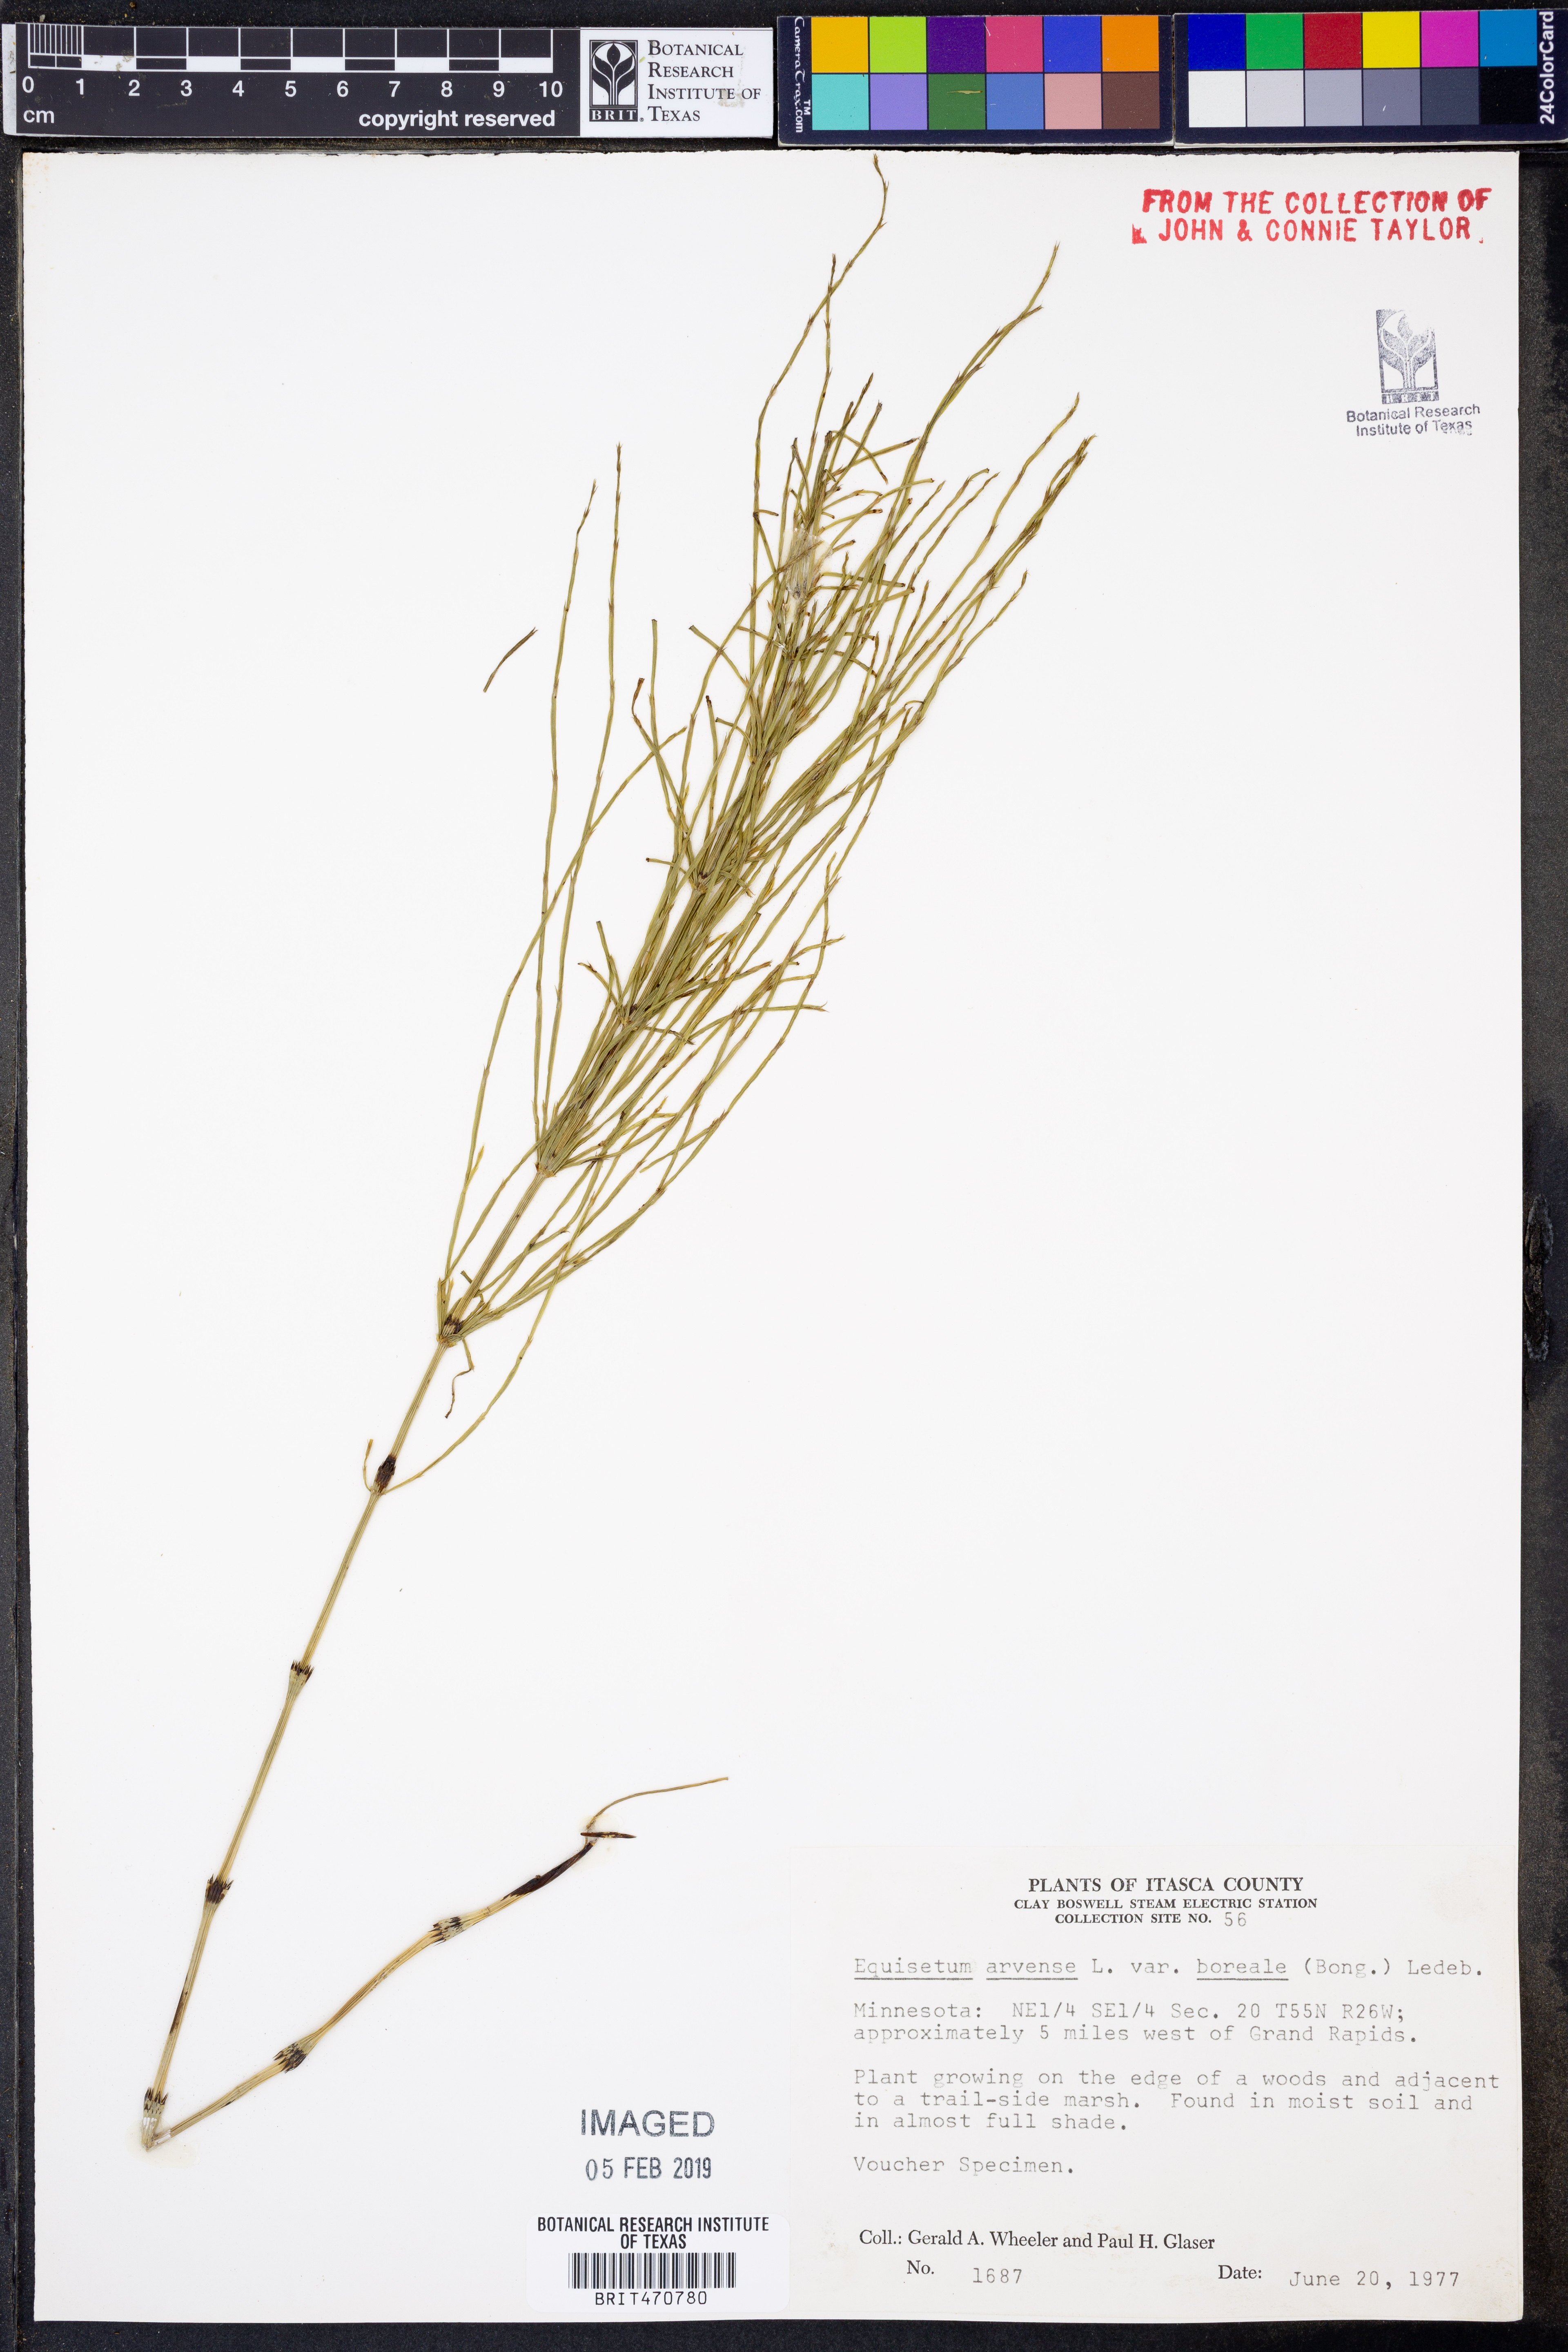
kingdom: Plantae
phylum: Tracheophyta
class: Polypodiopsida
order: Equisetales
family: Equisetaceae
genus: Equisetum
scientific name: Equisetum arvense
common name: Field horsetail
